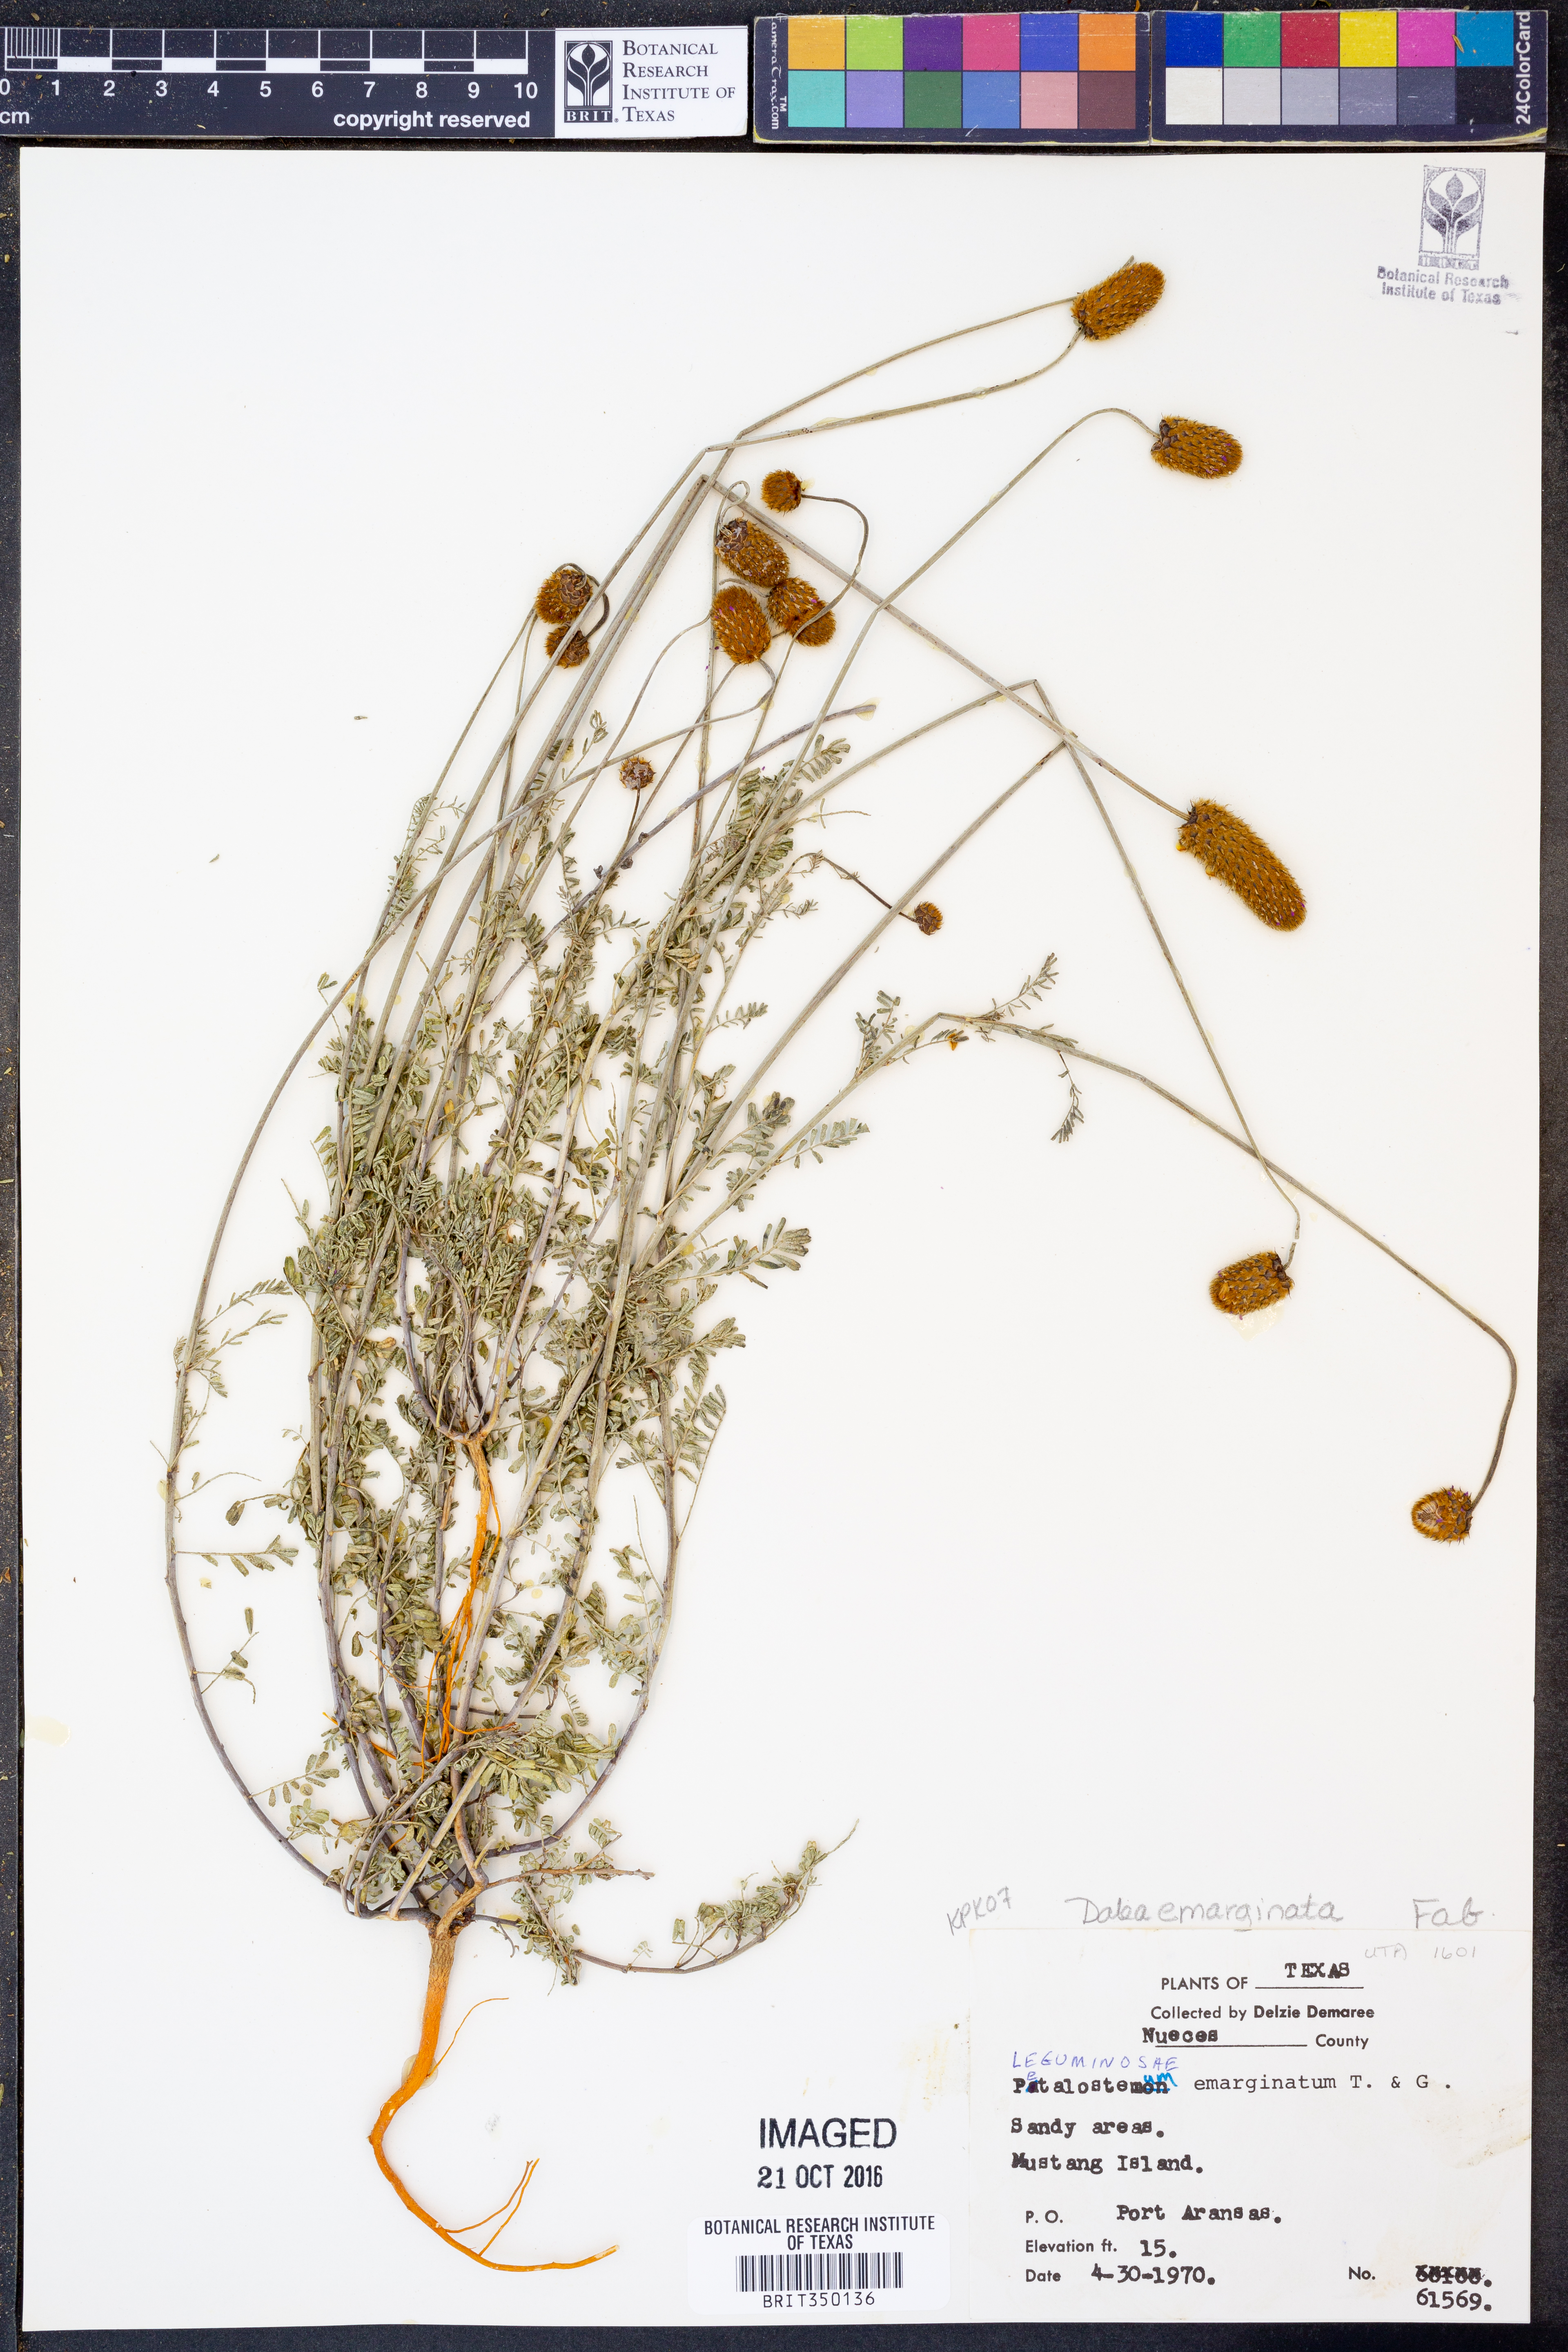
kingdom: Plantae
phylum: Tracheophyta
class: Magnoliopsida
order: Fabales
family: Fabaceae
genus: Dalea
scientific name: Dalea emarginata
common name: Wedgeleaf prairie clover
